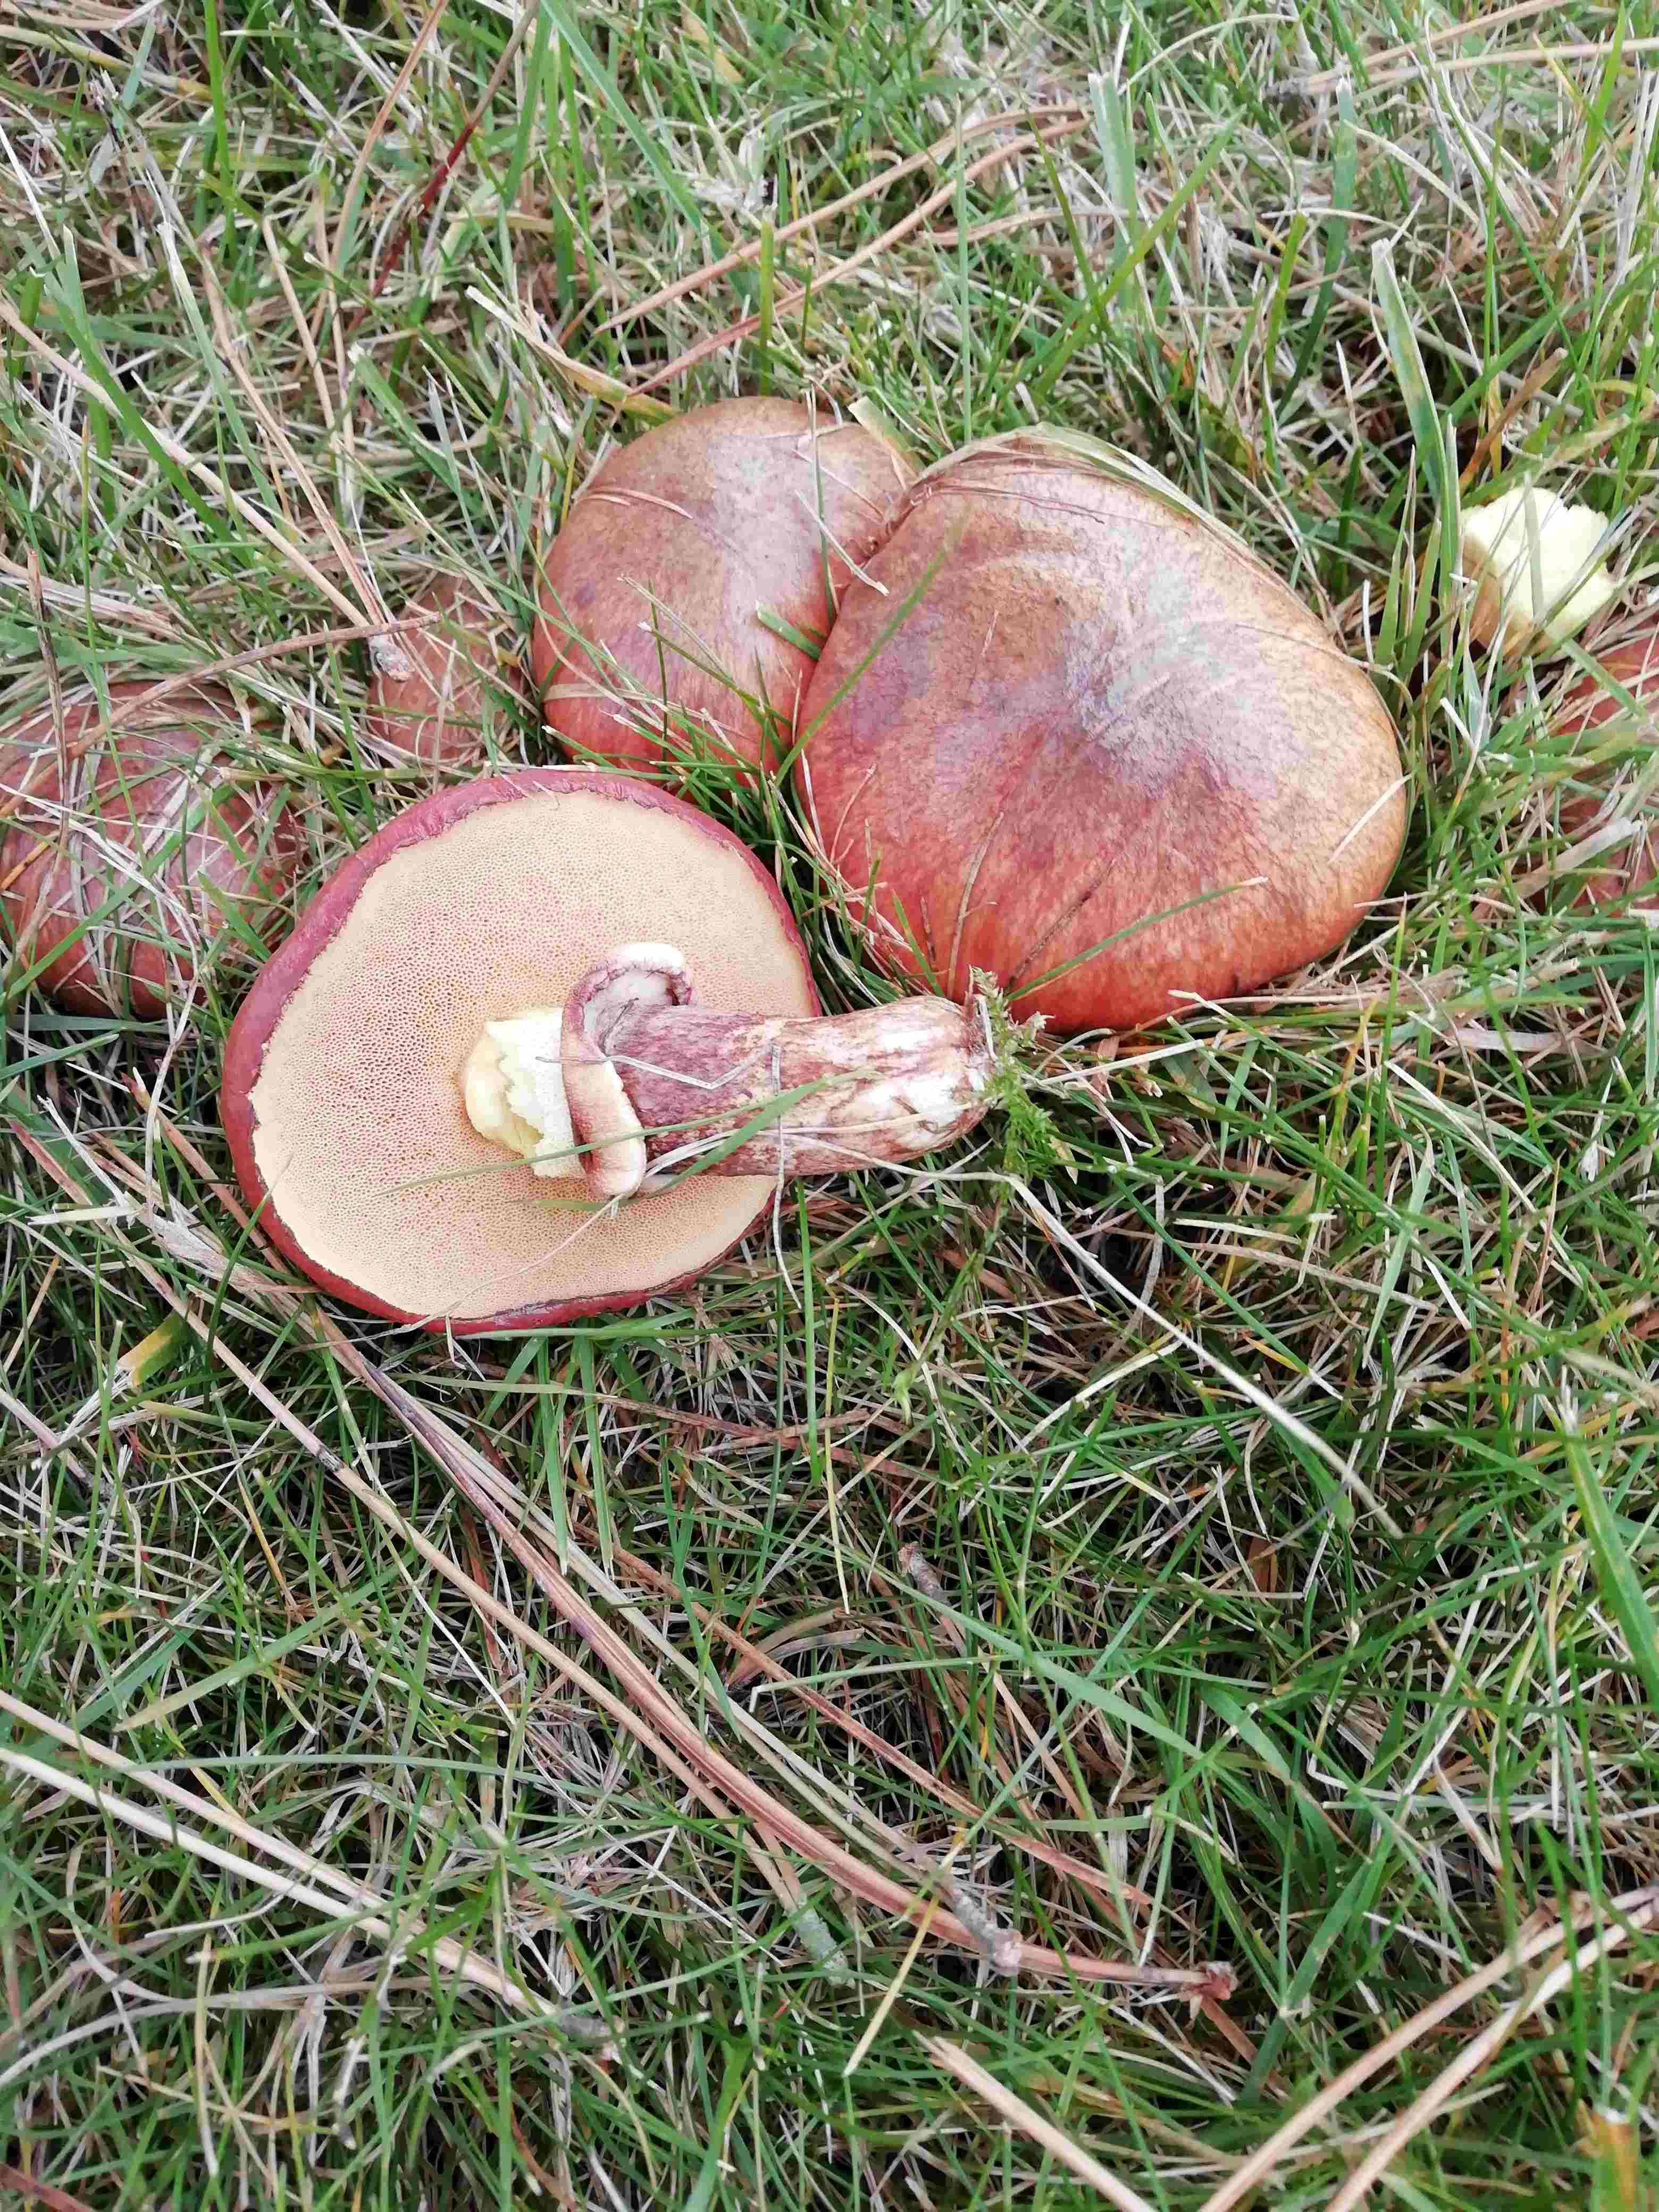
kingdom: Fungi
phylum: Basidiomycota
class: Agaricomycetes
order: Boletales
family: Suillaceae
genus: Suillus
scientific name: Suillus luteus
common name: brungul slimrørhat
